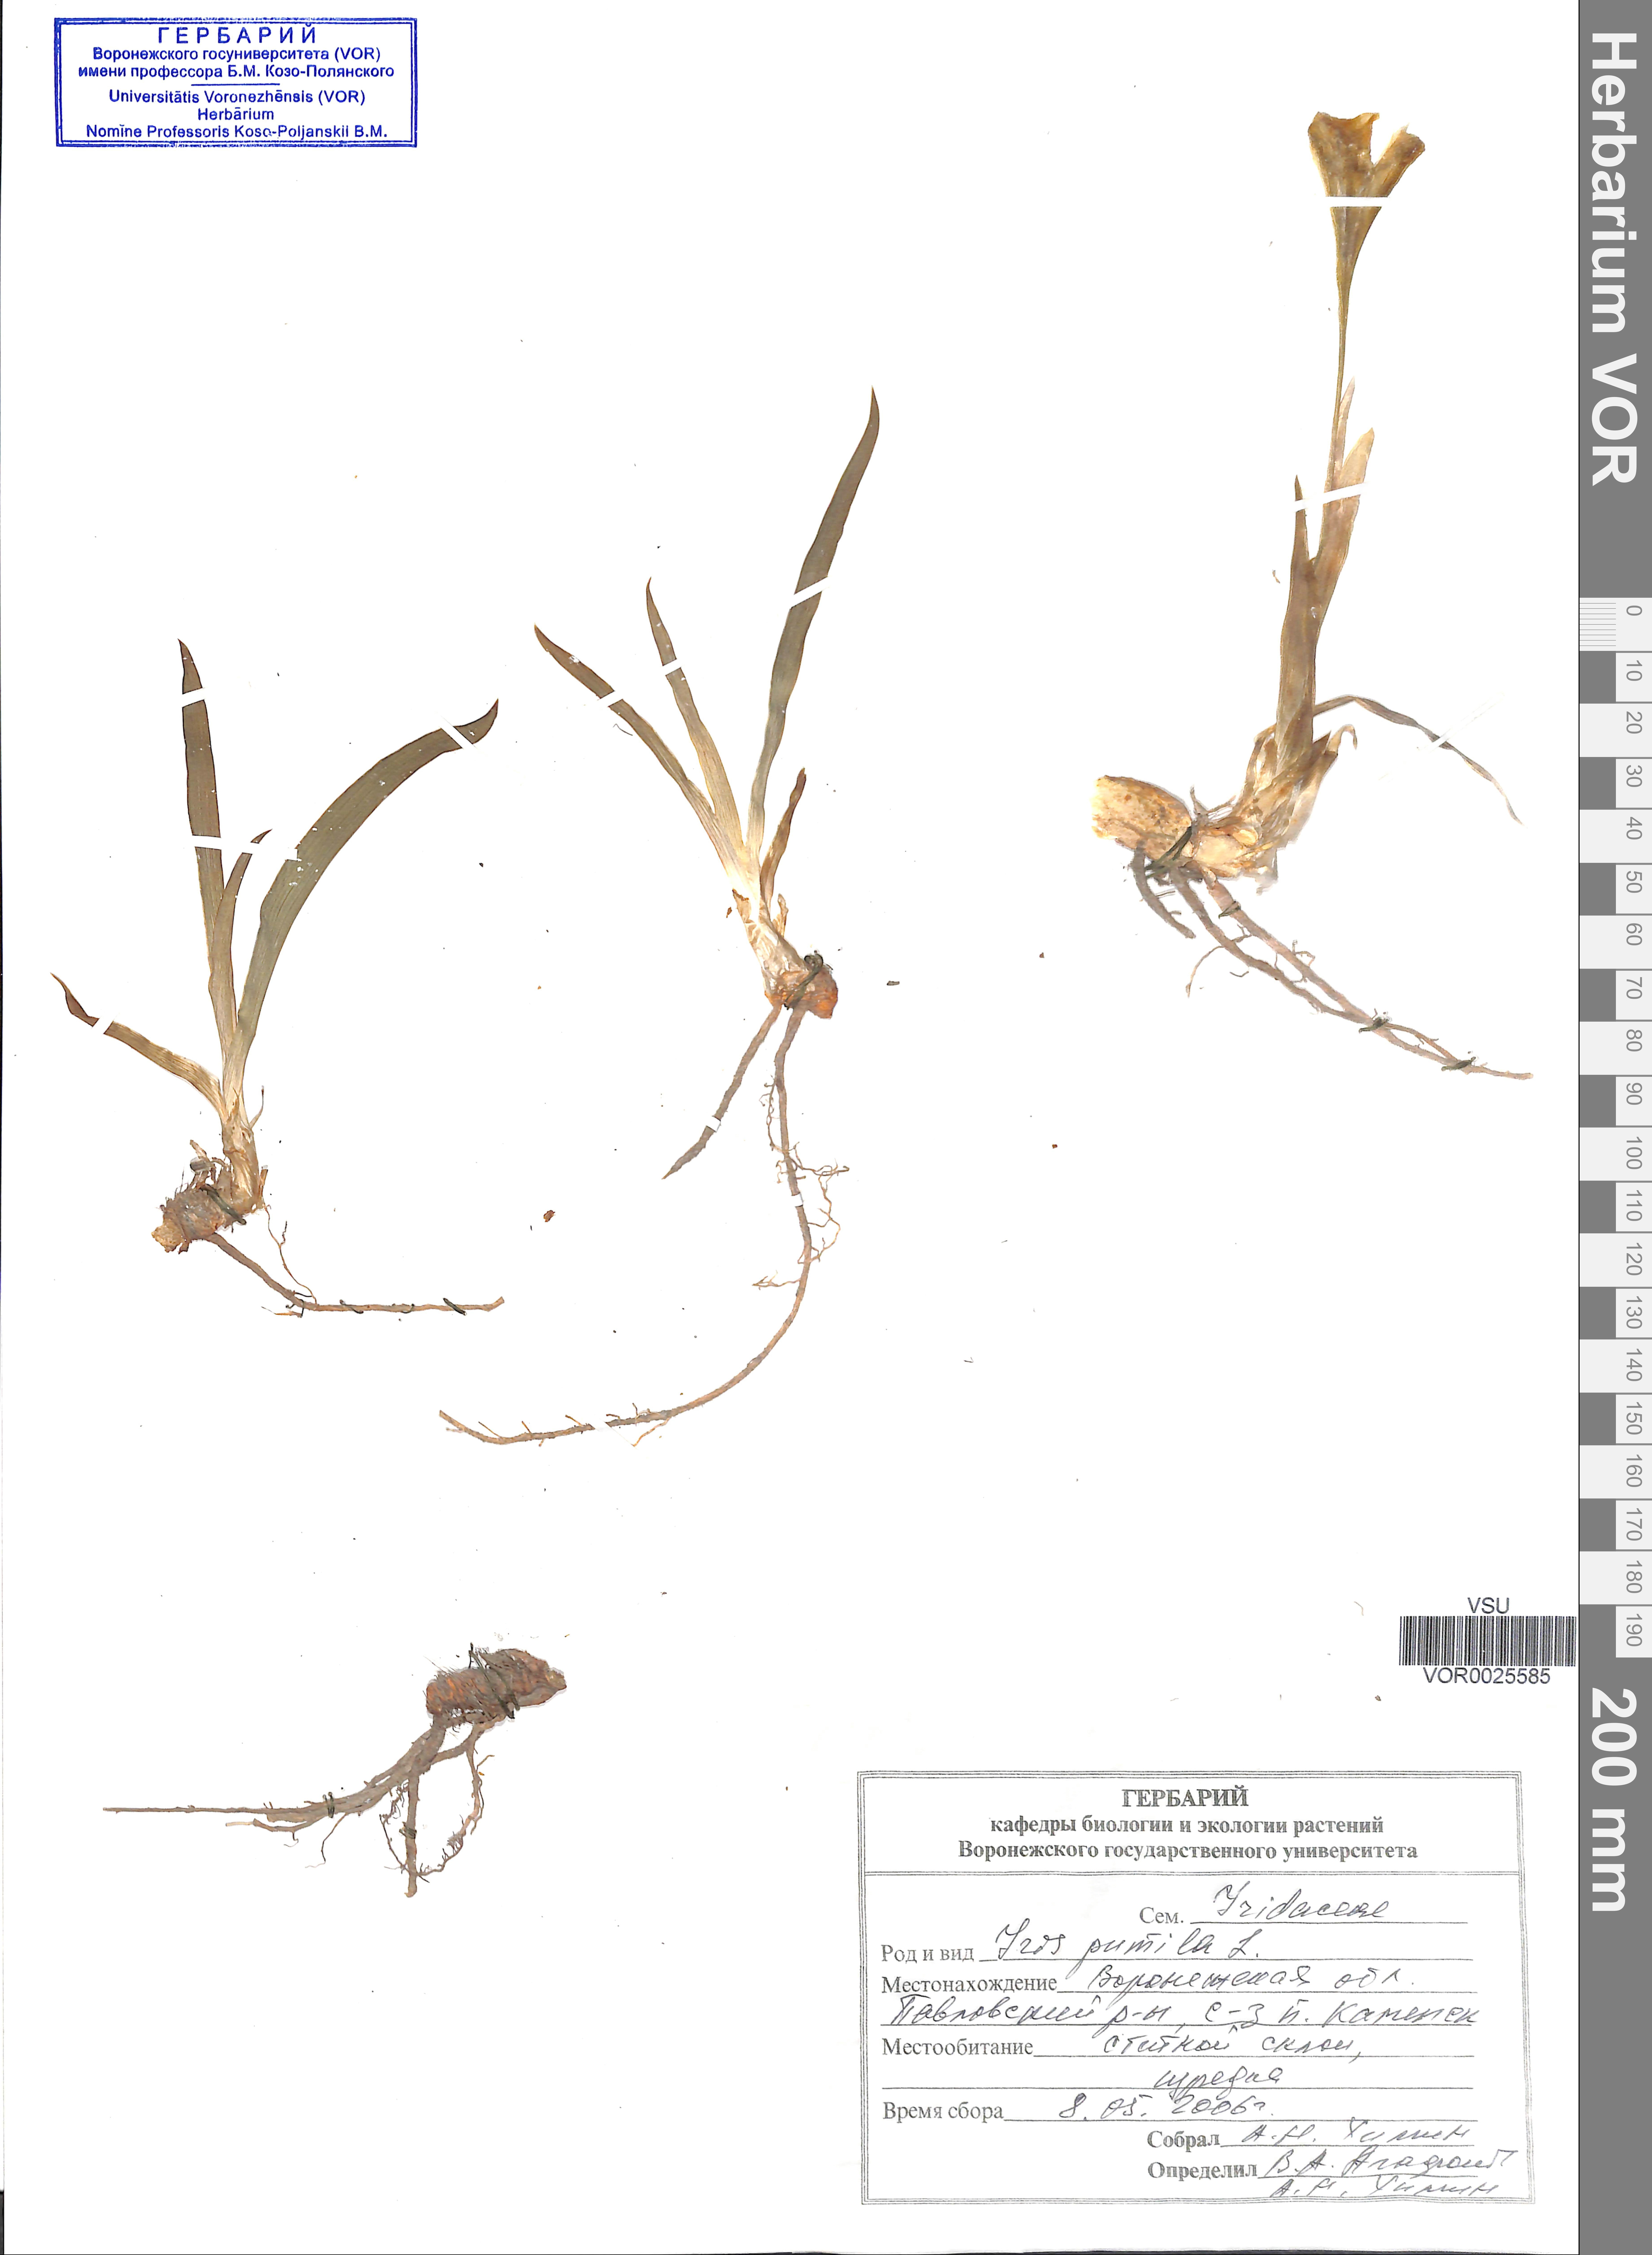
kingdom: Plantae
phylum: Tracheophyta
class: Liliopsida
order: Asparagales
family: Iridaceae
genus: Iris
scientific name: Iris pumila
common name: Dwarf iris
